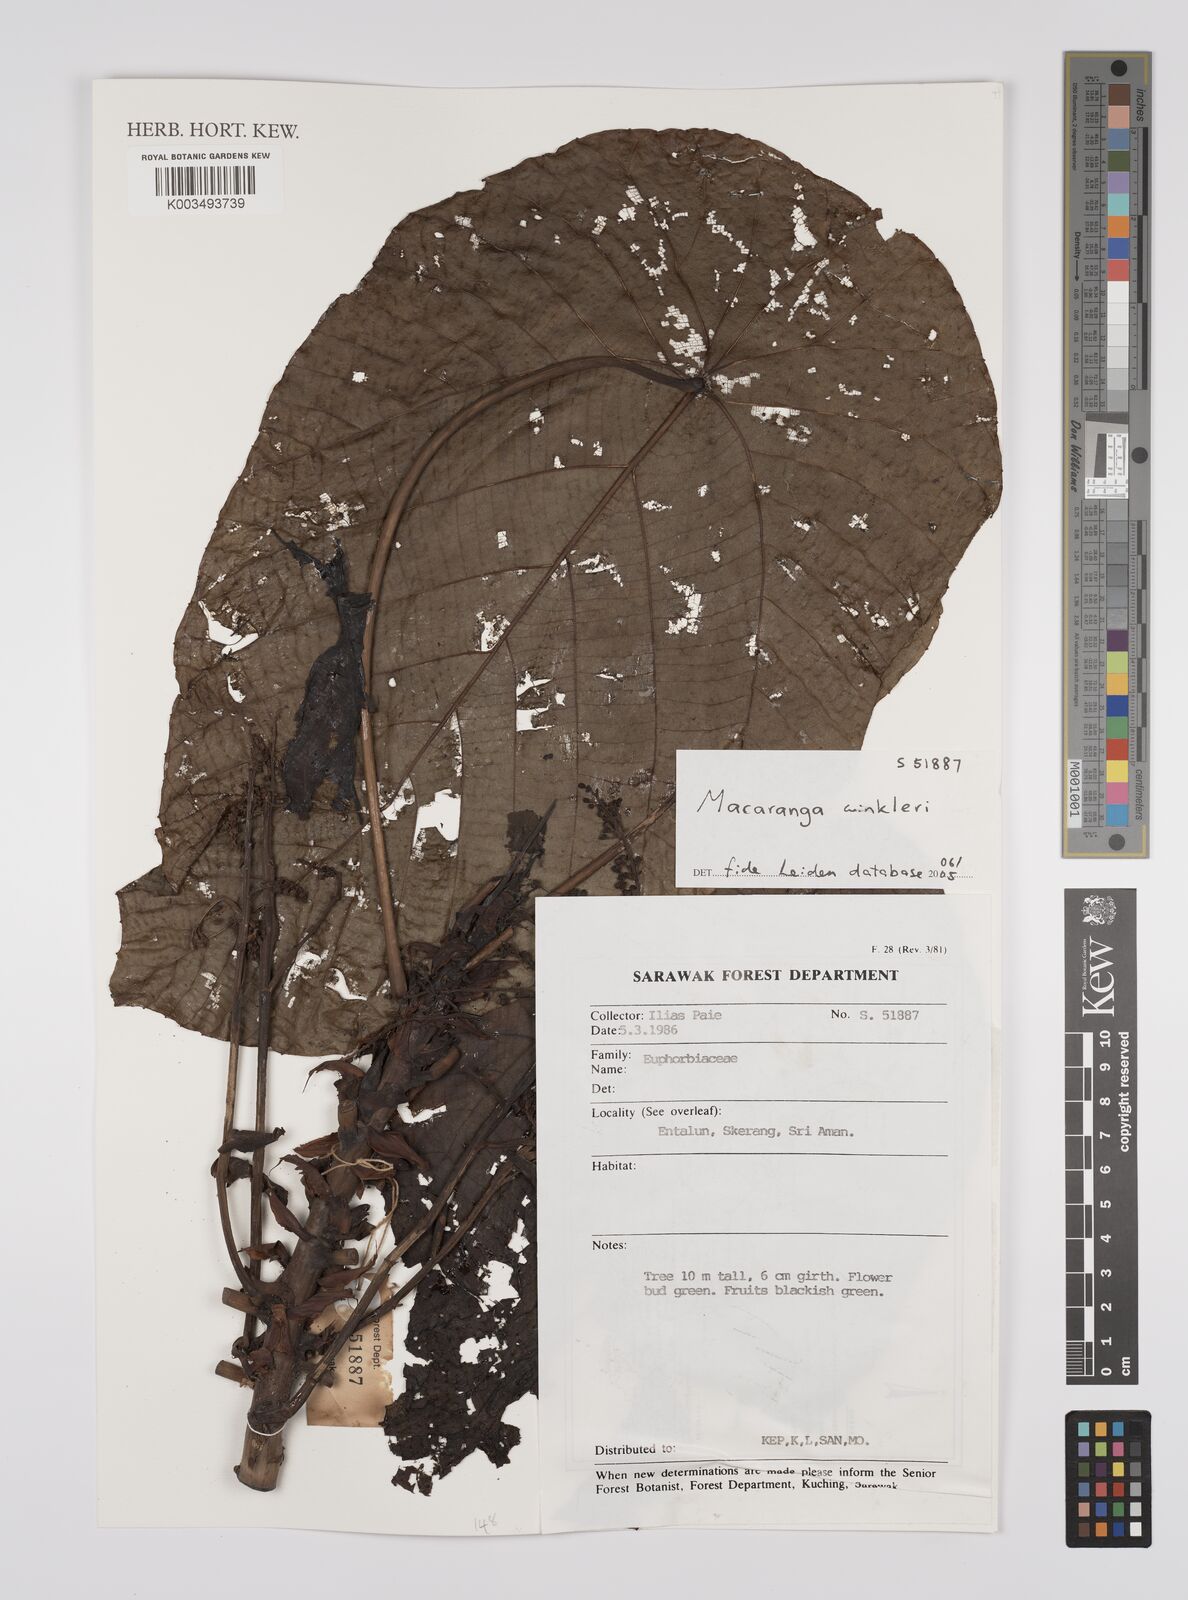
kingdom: Plantae
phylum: Tracheophyta
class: Magnoliopsida
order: Malpighiales
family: Euphorbiaceae
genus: Macaranga
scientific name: Macaranga winkleri
